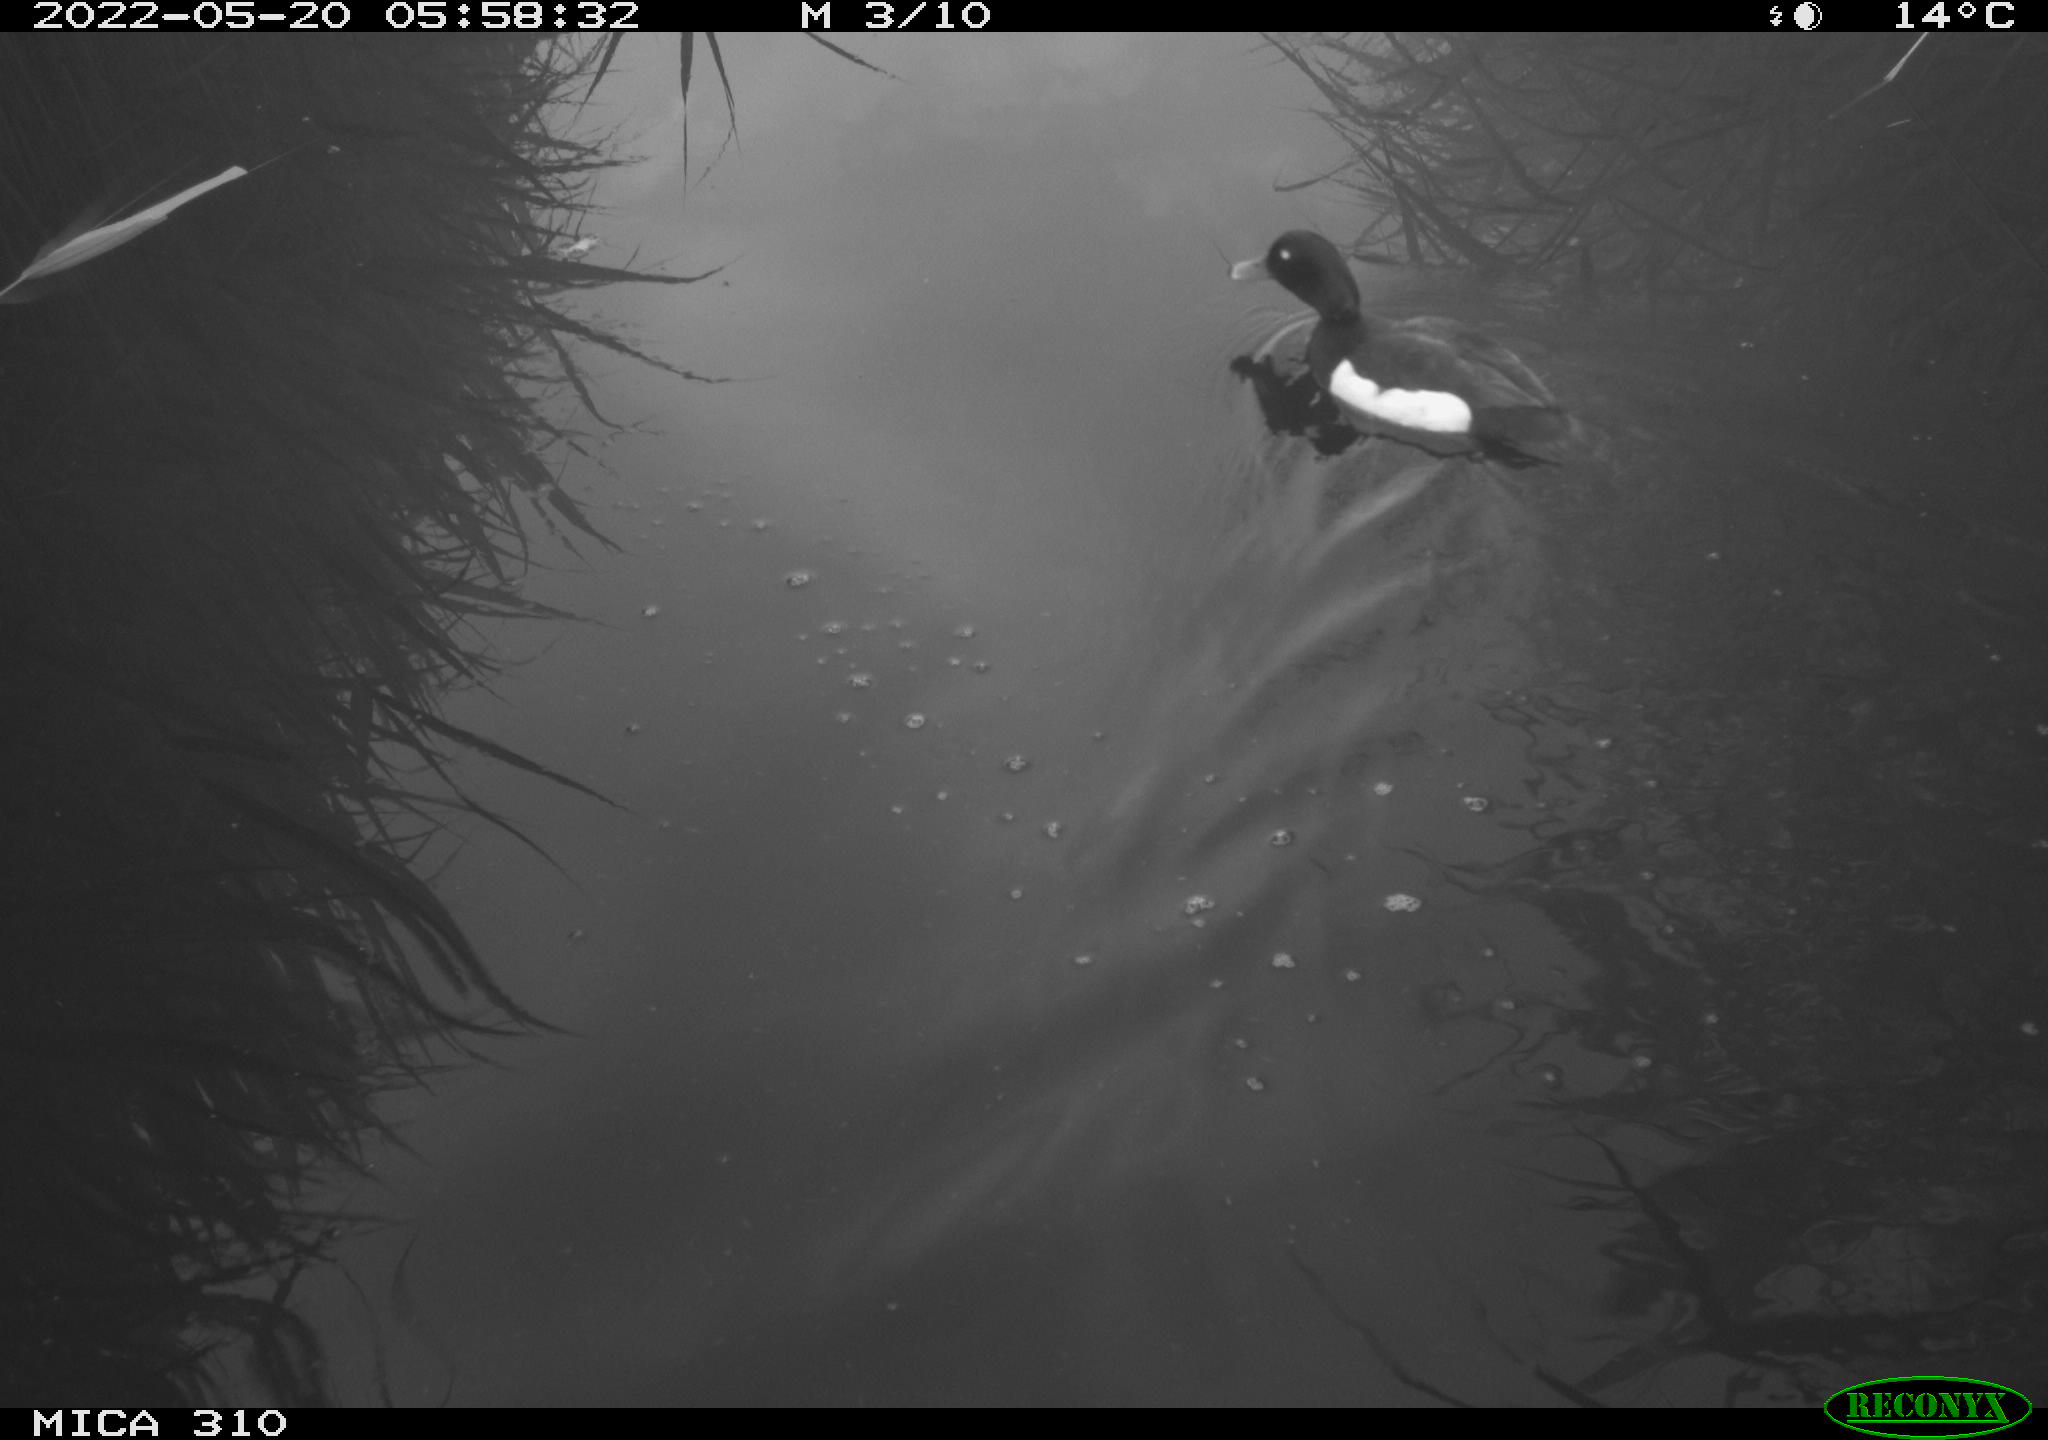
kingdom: Animalia
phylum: Chordata
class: Aves
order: Gruiformes
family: Rallidae
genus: Gallinula
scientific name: Gallinula chloropus
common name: Common moorhen
